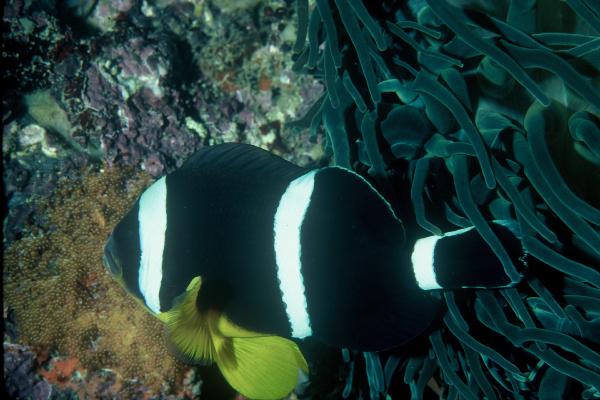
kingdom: Animalia
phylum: Chordata
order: Perciformes
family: Pomacentridae
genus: Amphiprion
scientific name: Amphiprion chrysogaster
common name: Mauritian anemonefish
